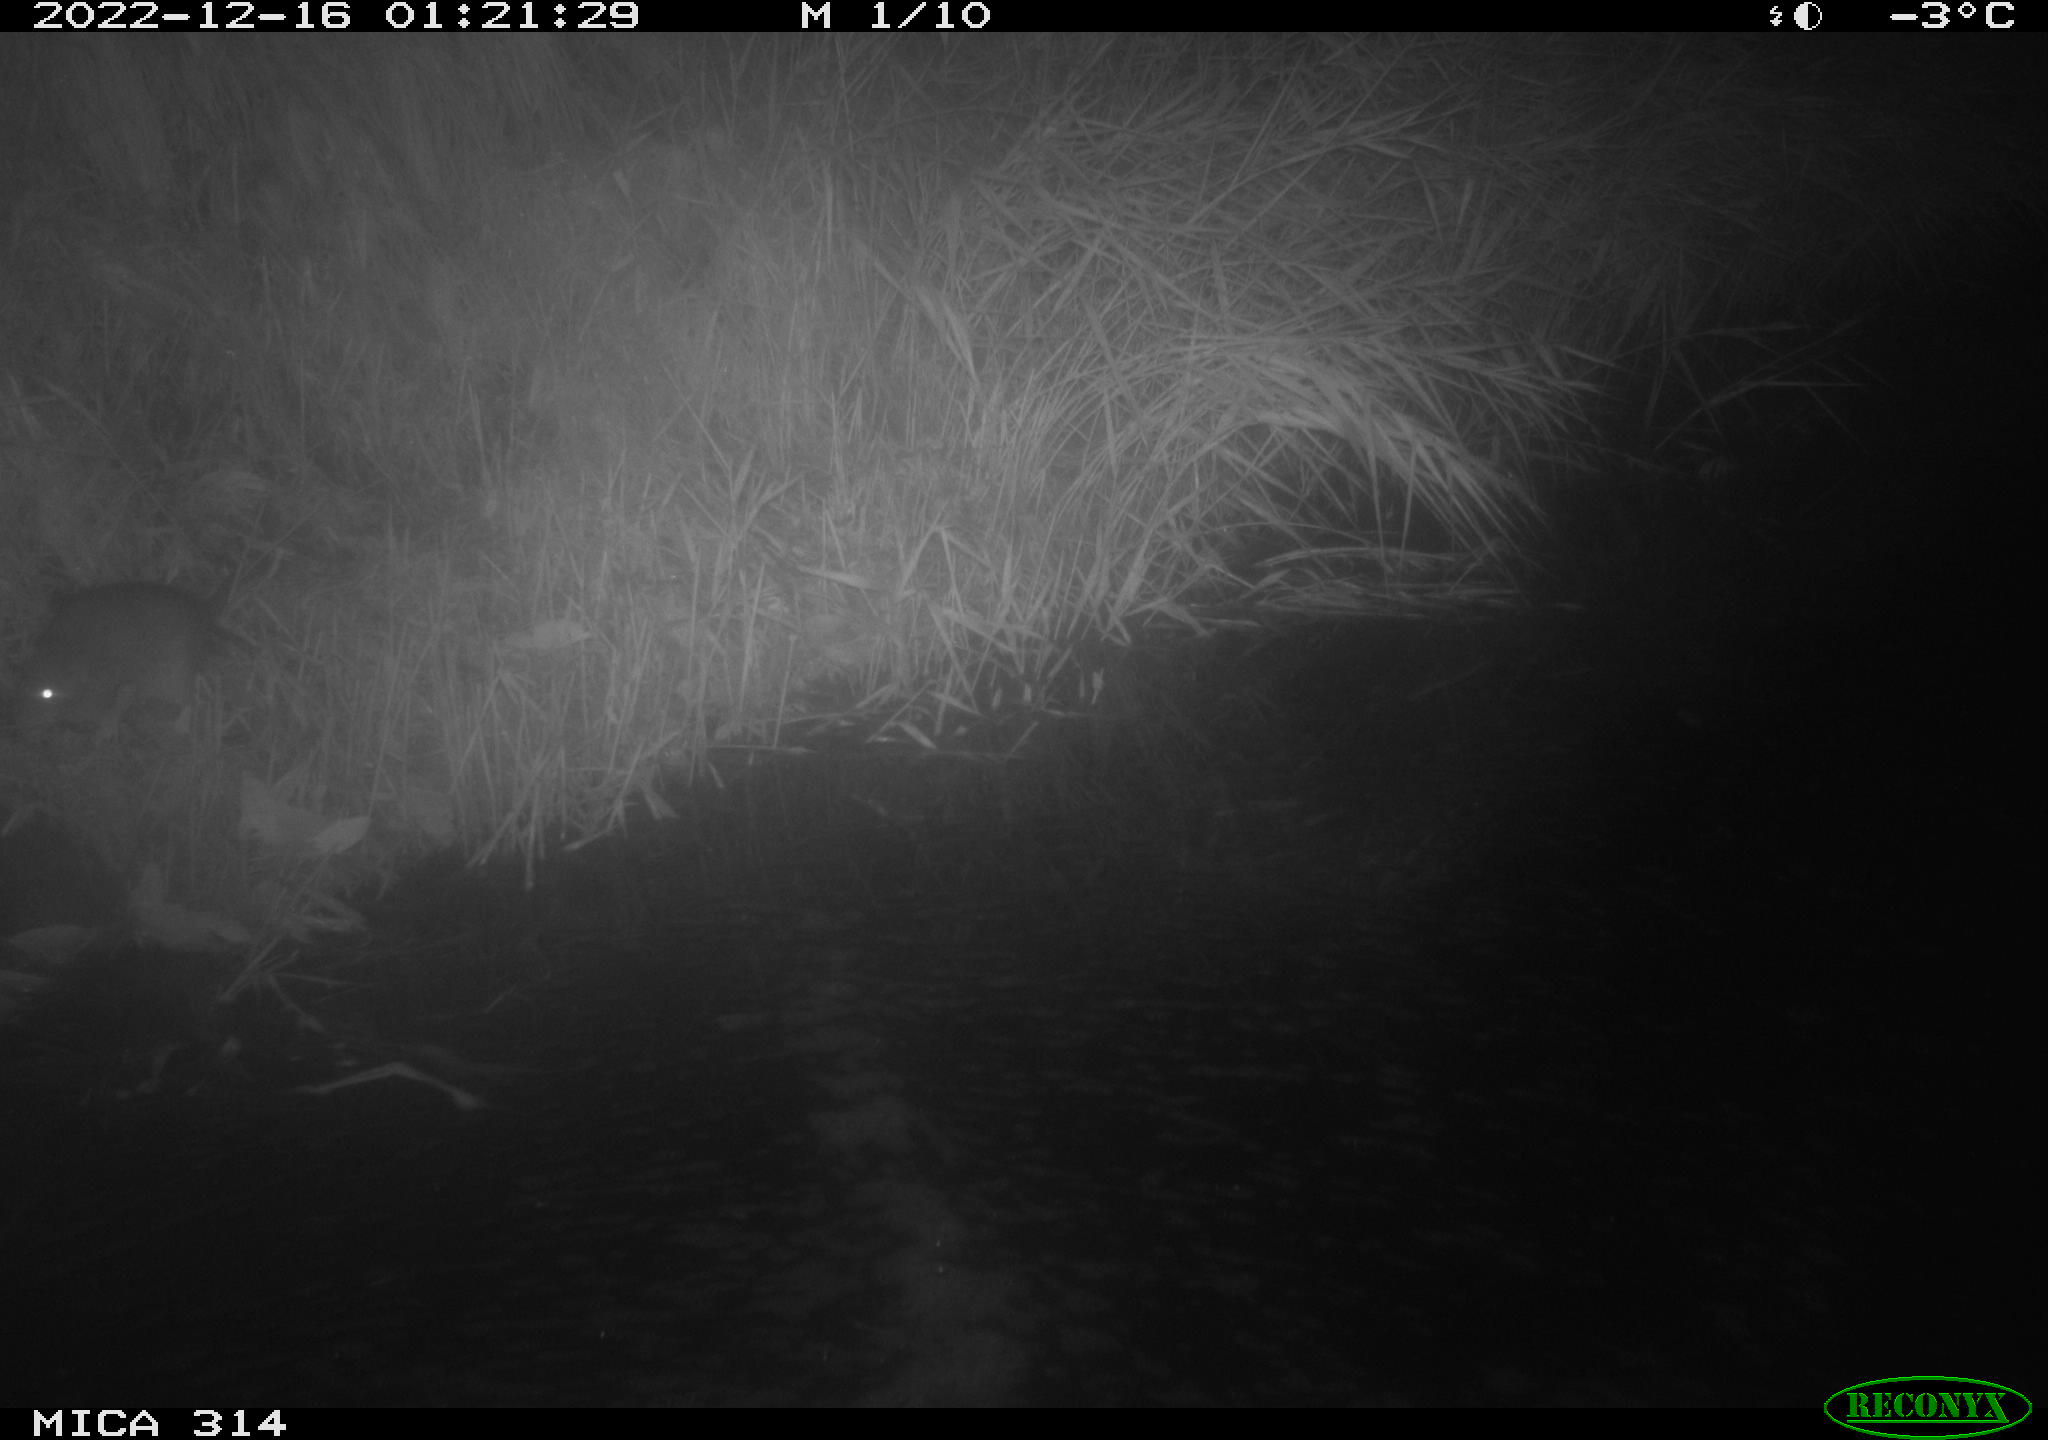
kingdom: Animalia
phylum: Chordata
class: Mammalia
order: Rodentia
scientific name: Rodentia
